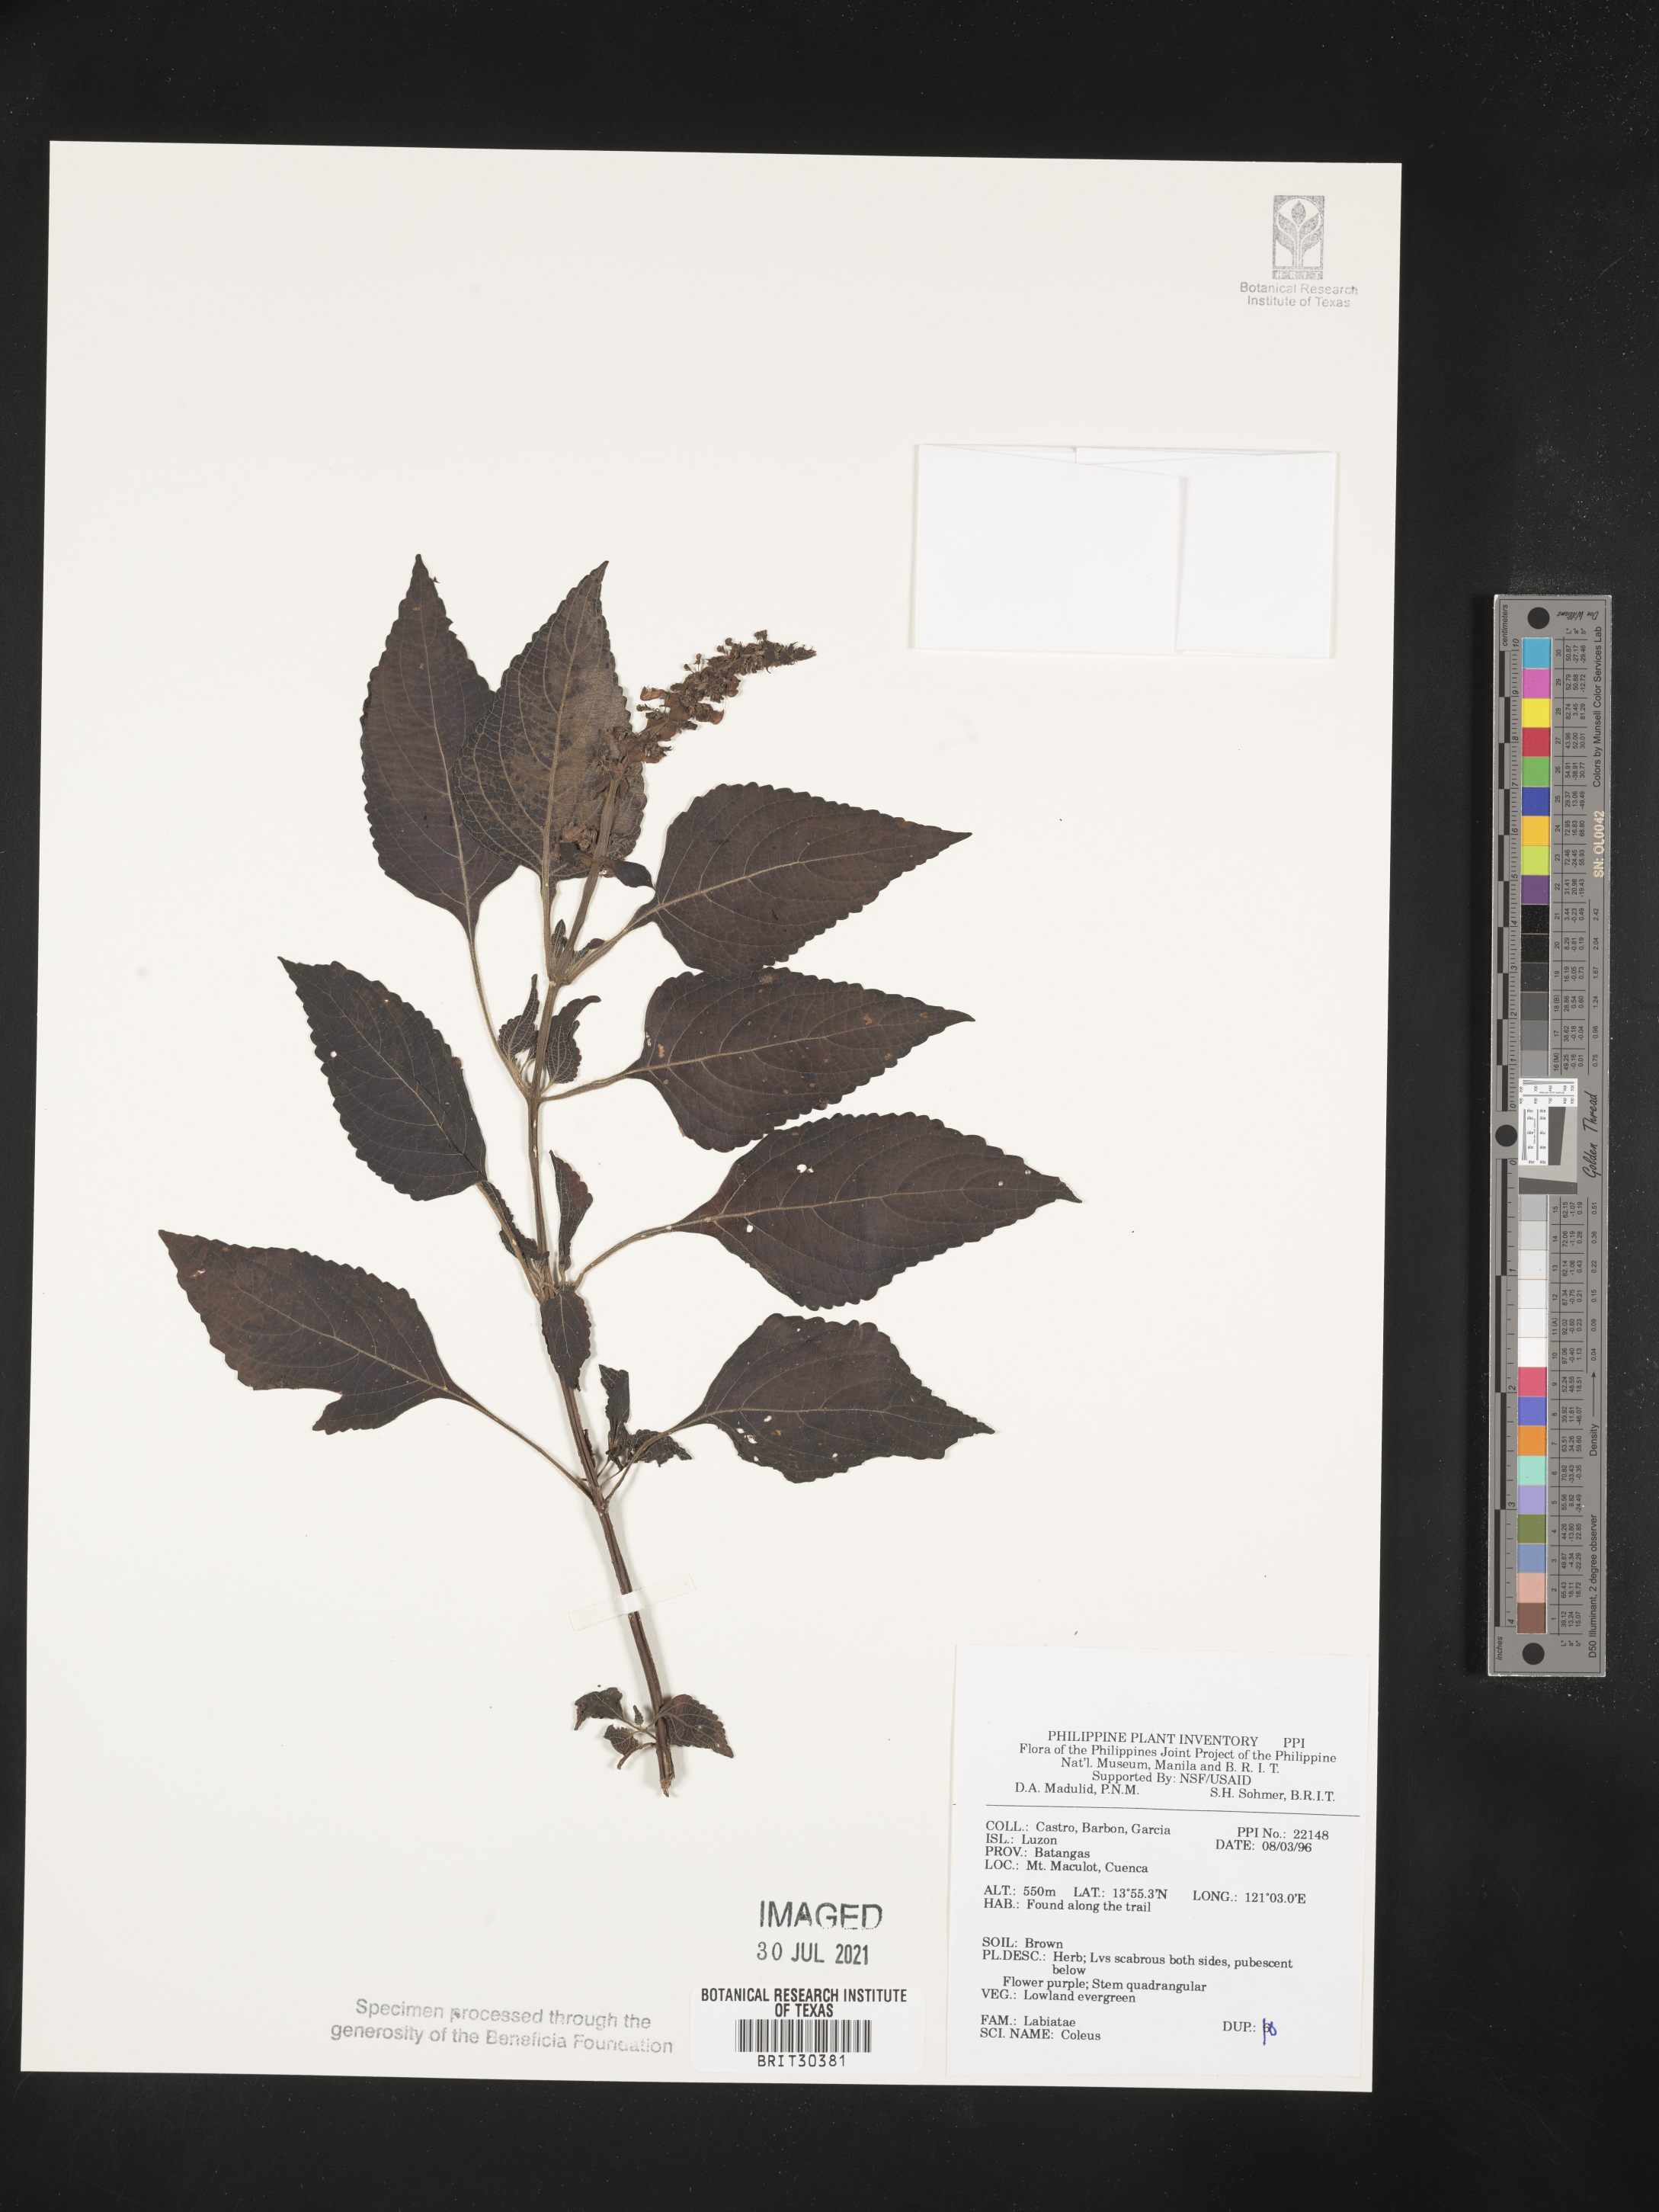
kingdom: Plantae
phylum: Tracheophyta
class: Magnoliopsida
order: Lamiales
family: Lamiaceae
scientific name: Lamiaceae
